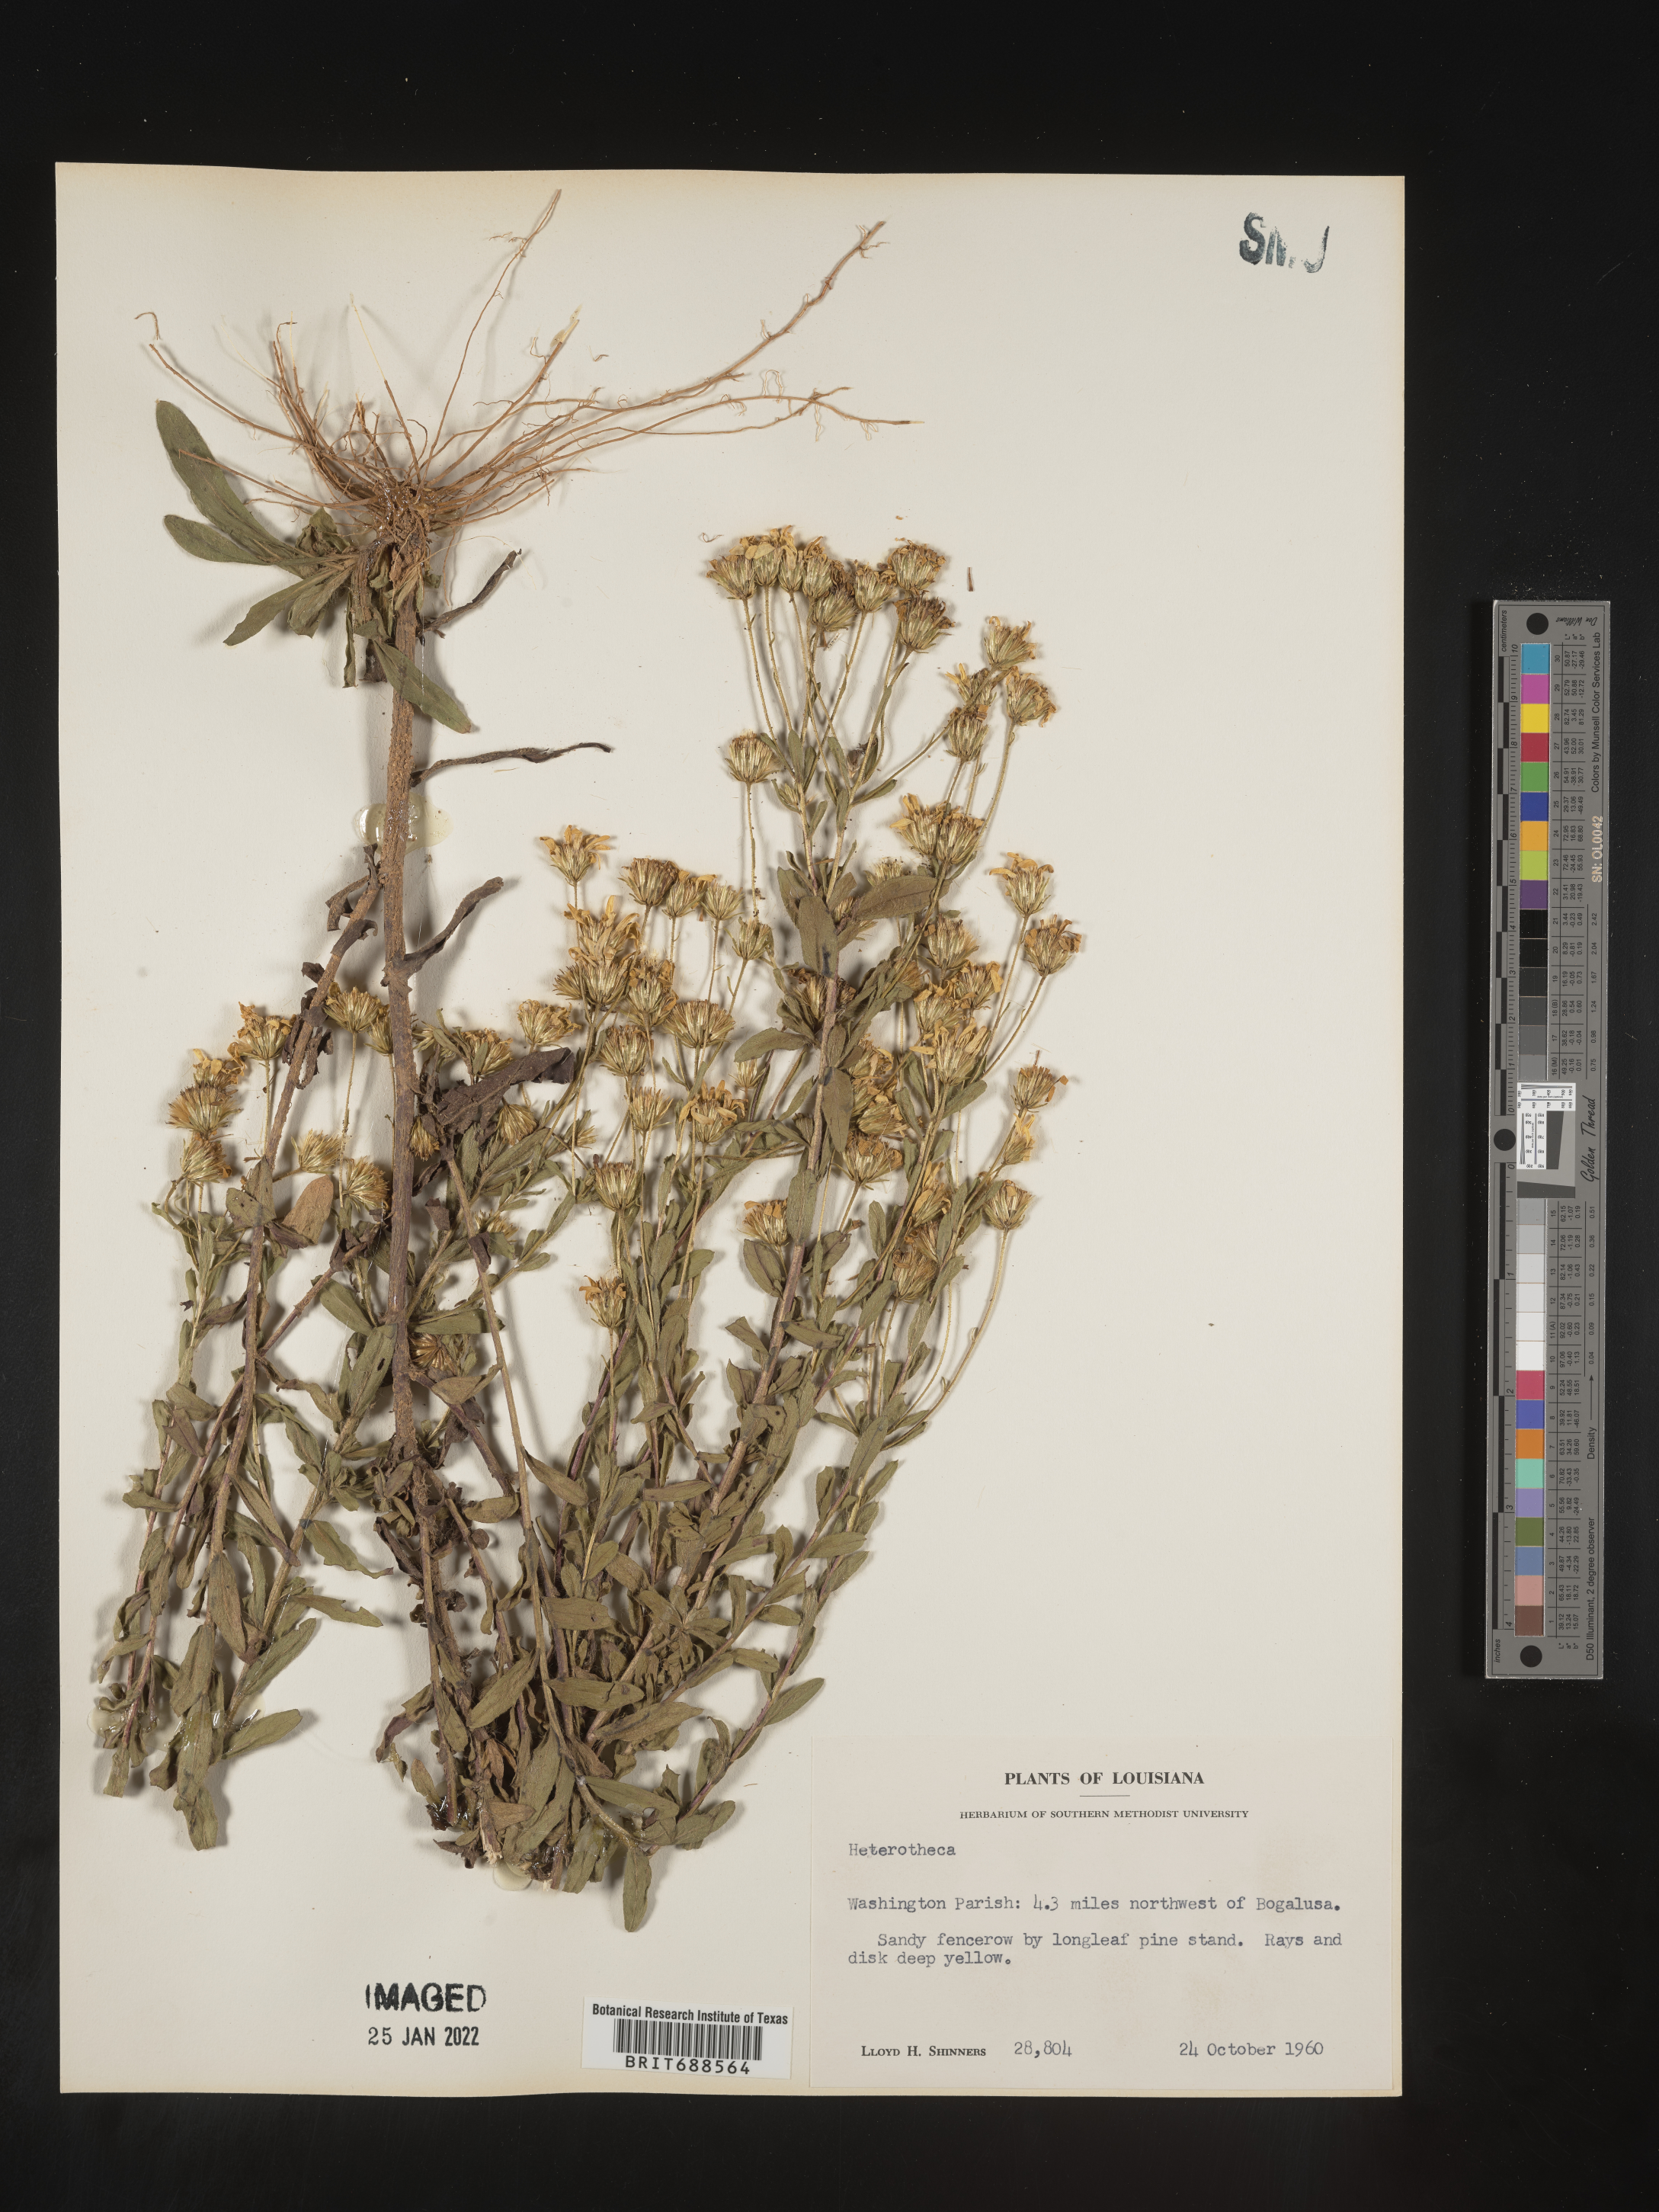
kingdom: Plantae
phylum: Tracheophyta
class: Magnoliopsida
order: Asterales
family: Asteraceae
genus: Chrysopsis
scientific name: Chrysopsis gossypina
